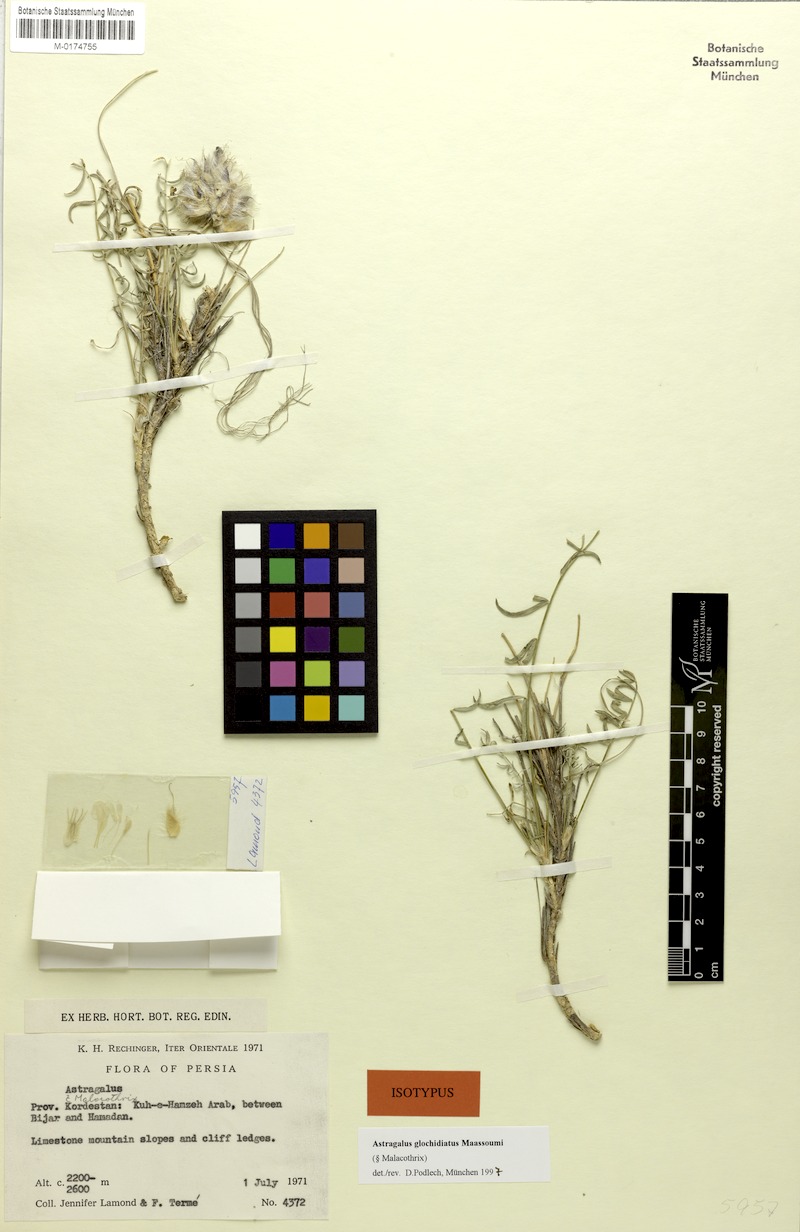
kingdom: Plantae
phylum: Tracheophyta
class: Magnoliopsida
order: Fabales
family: Fabaceae
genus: Astragalus
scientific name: Astragalus glochidiatus
